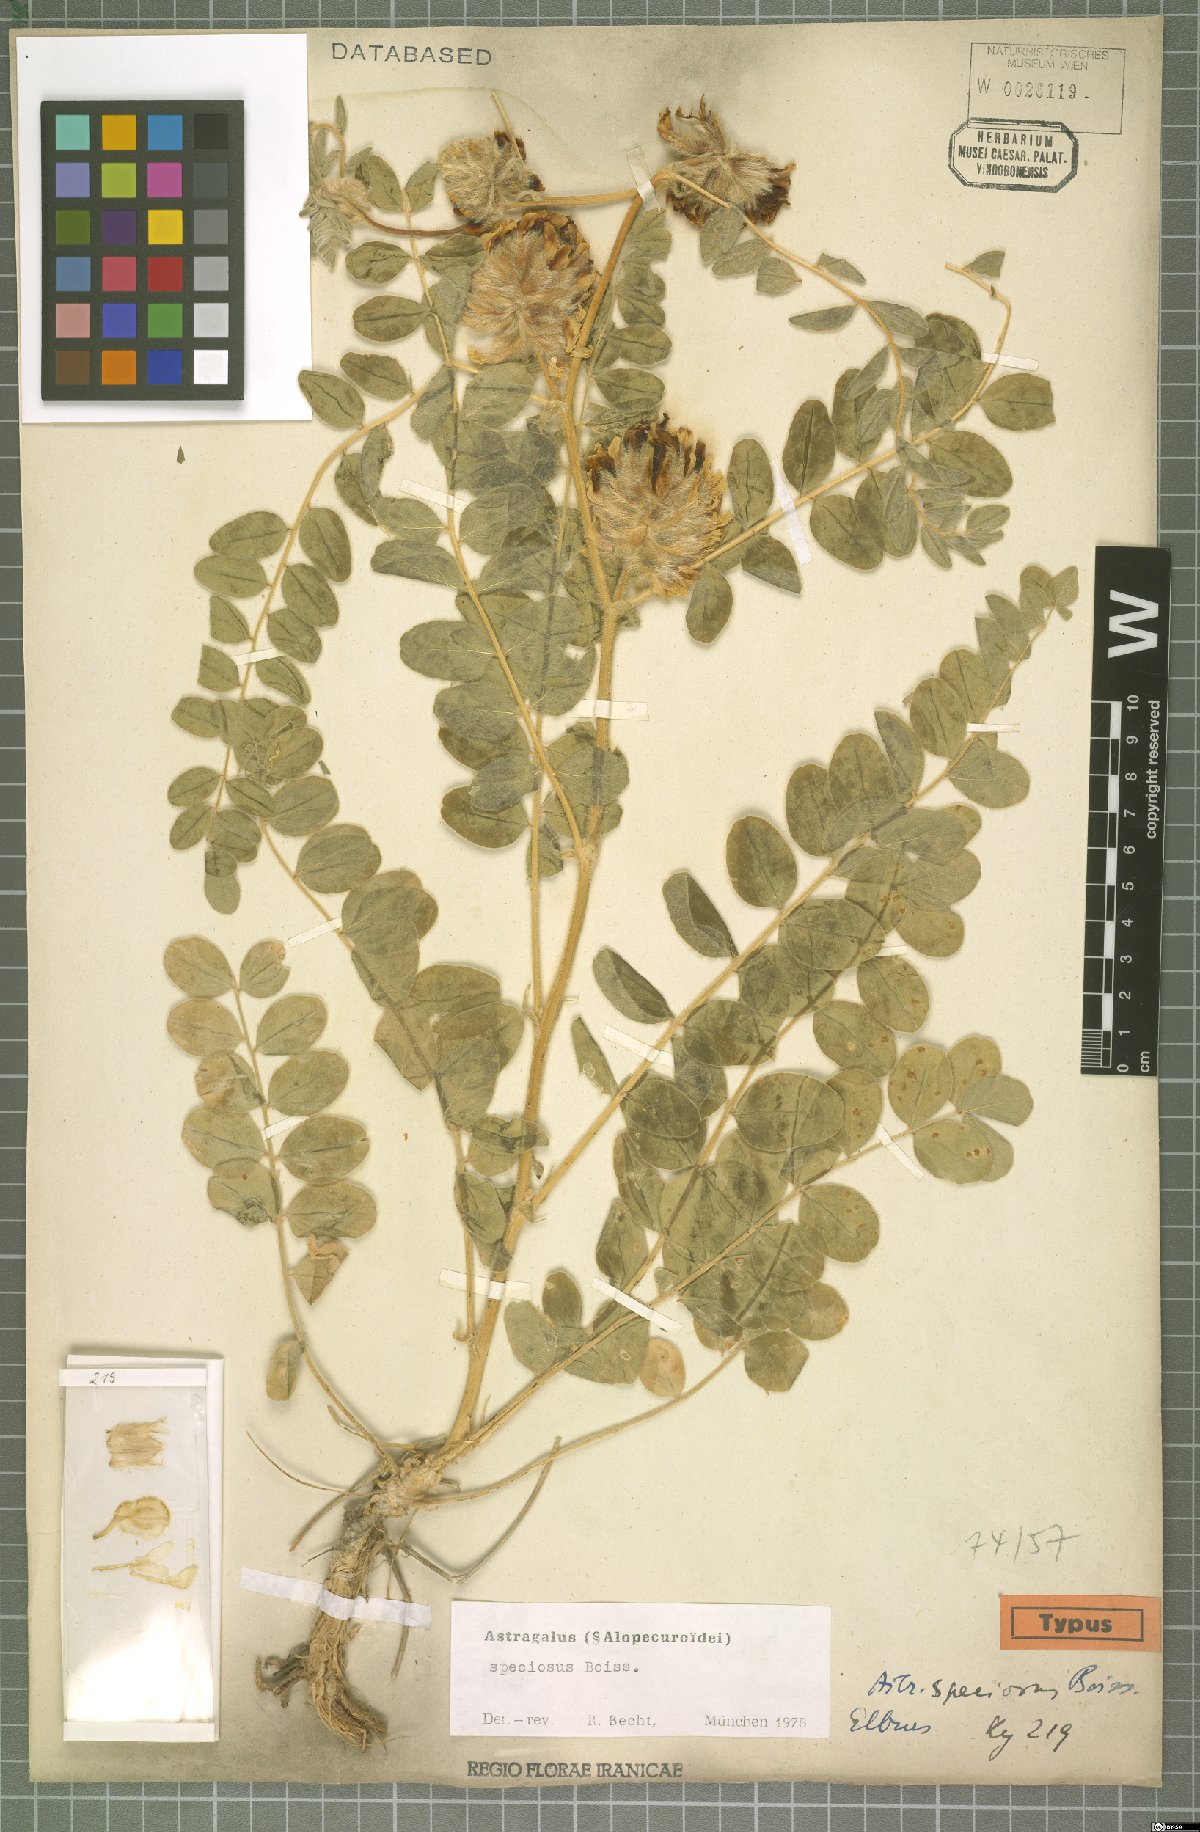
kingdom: Plantae
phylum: Tracheophyta
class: Magnoliopsida
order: Fabales
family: Fabaceae
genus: Astragalus
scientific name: Astragalus speciosus
